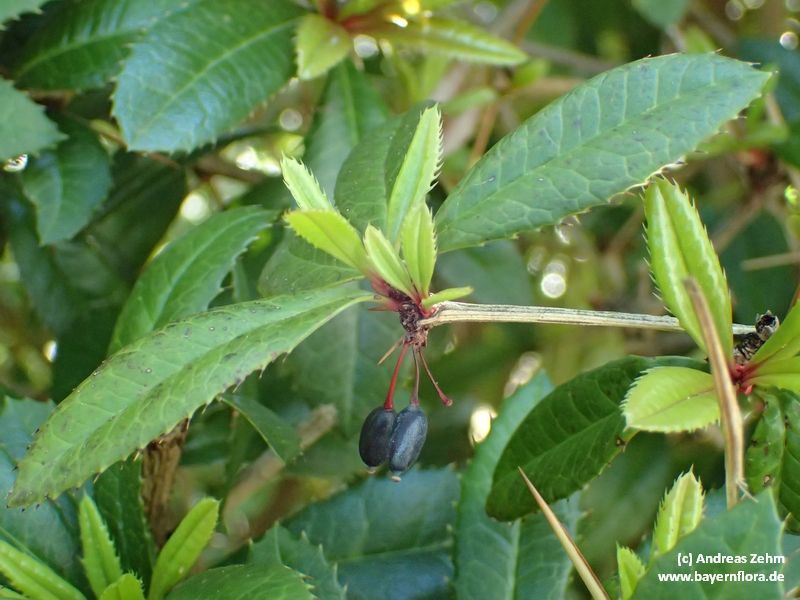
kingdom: Plantae
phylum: Tracheophyta
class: Magnoliopsida
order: Ranunculales
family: Berberidaceae
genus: Berberis
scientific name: Berberis julianae
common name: Wintergreen barberry
